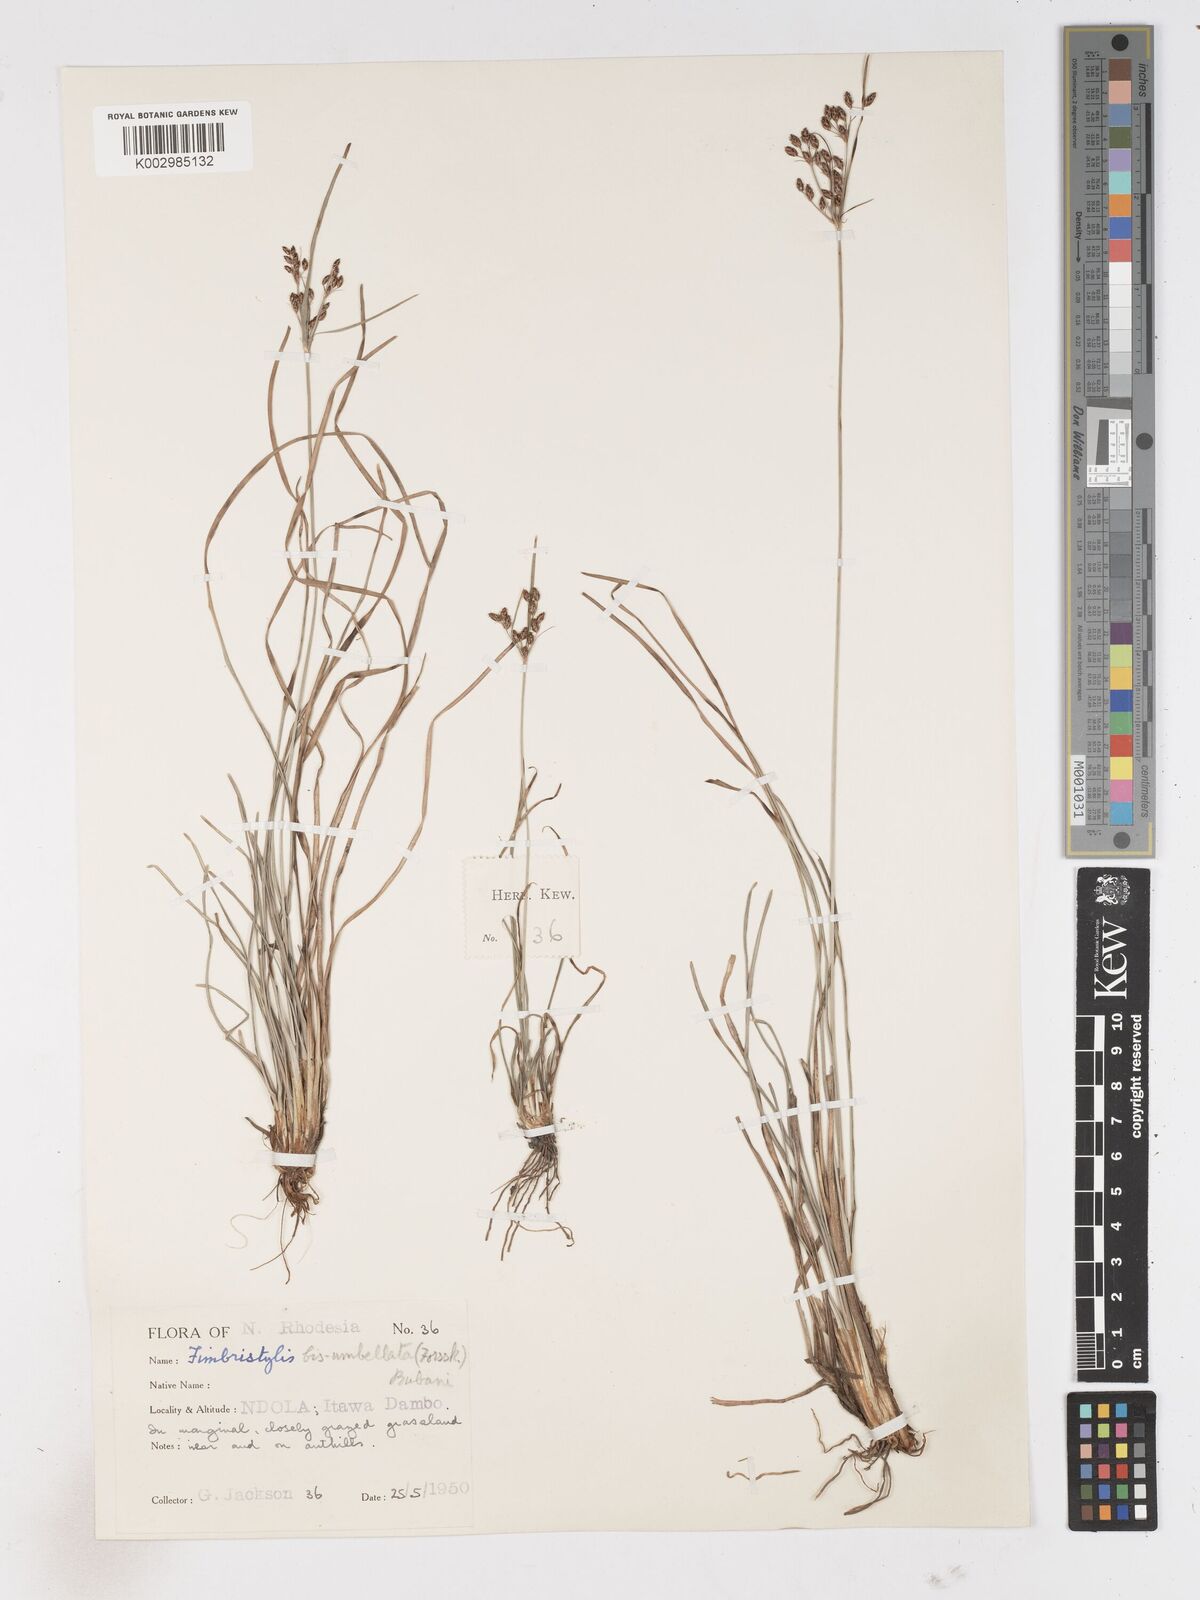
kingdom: Plantae
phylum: Tracheophyta
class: Liliopsida
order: Poales
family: Cyperaceae
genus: Fimbristylis
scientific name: Fimbristylis dichotoma
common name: Forked fimbry
